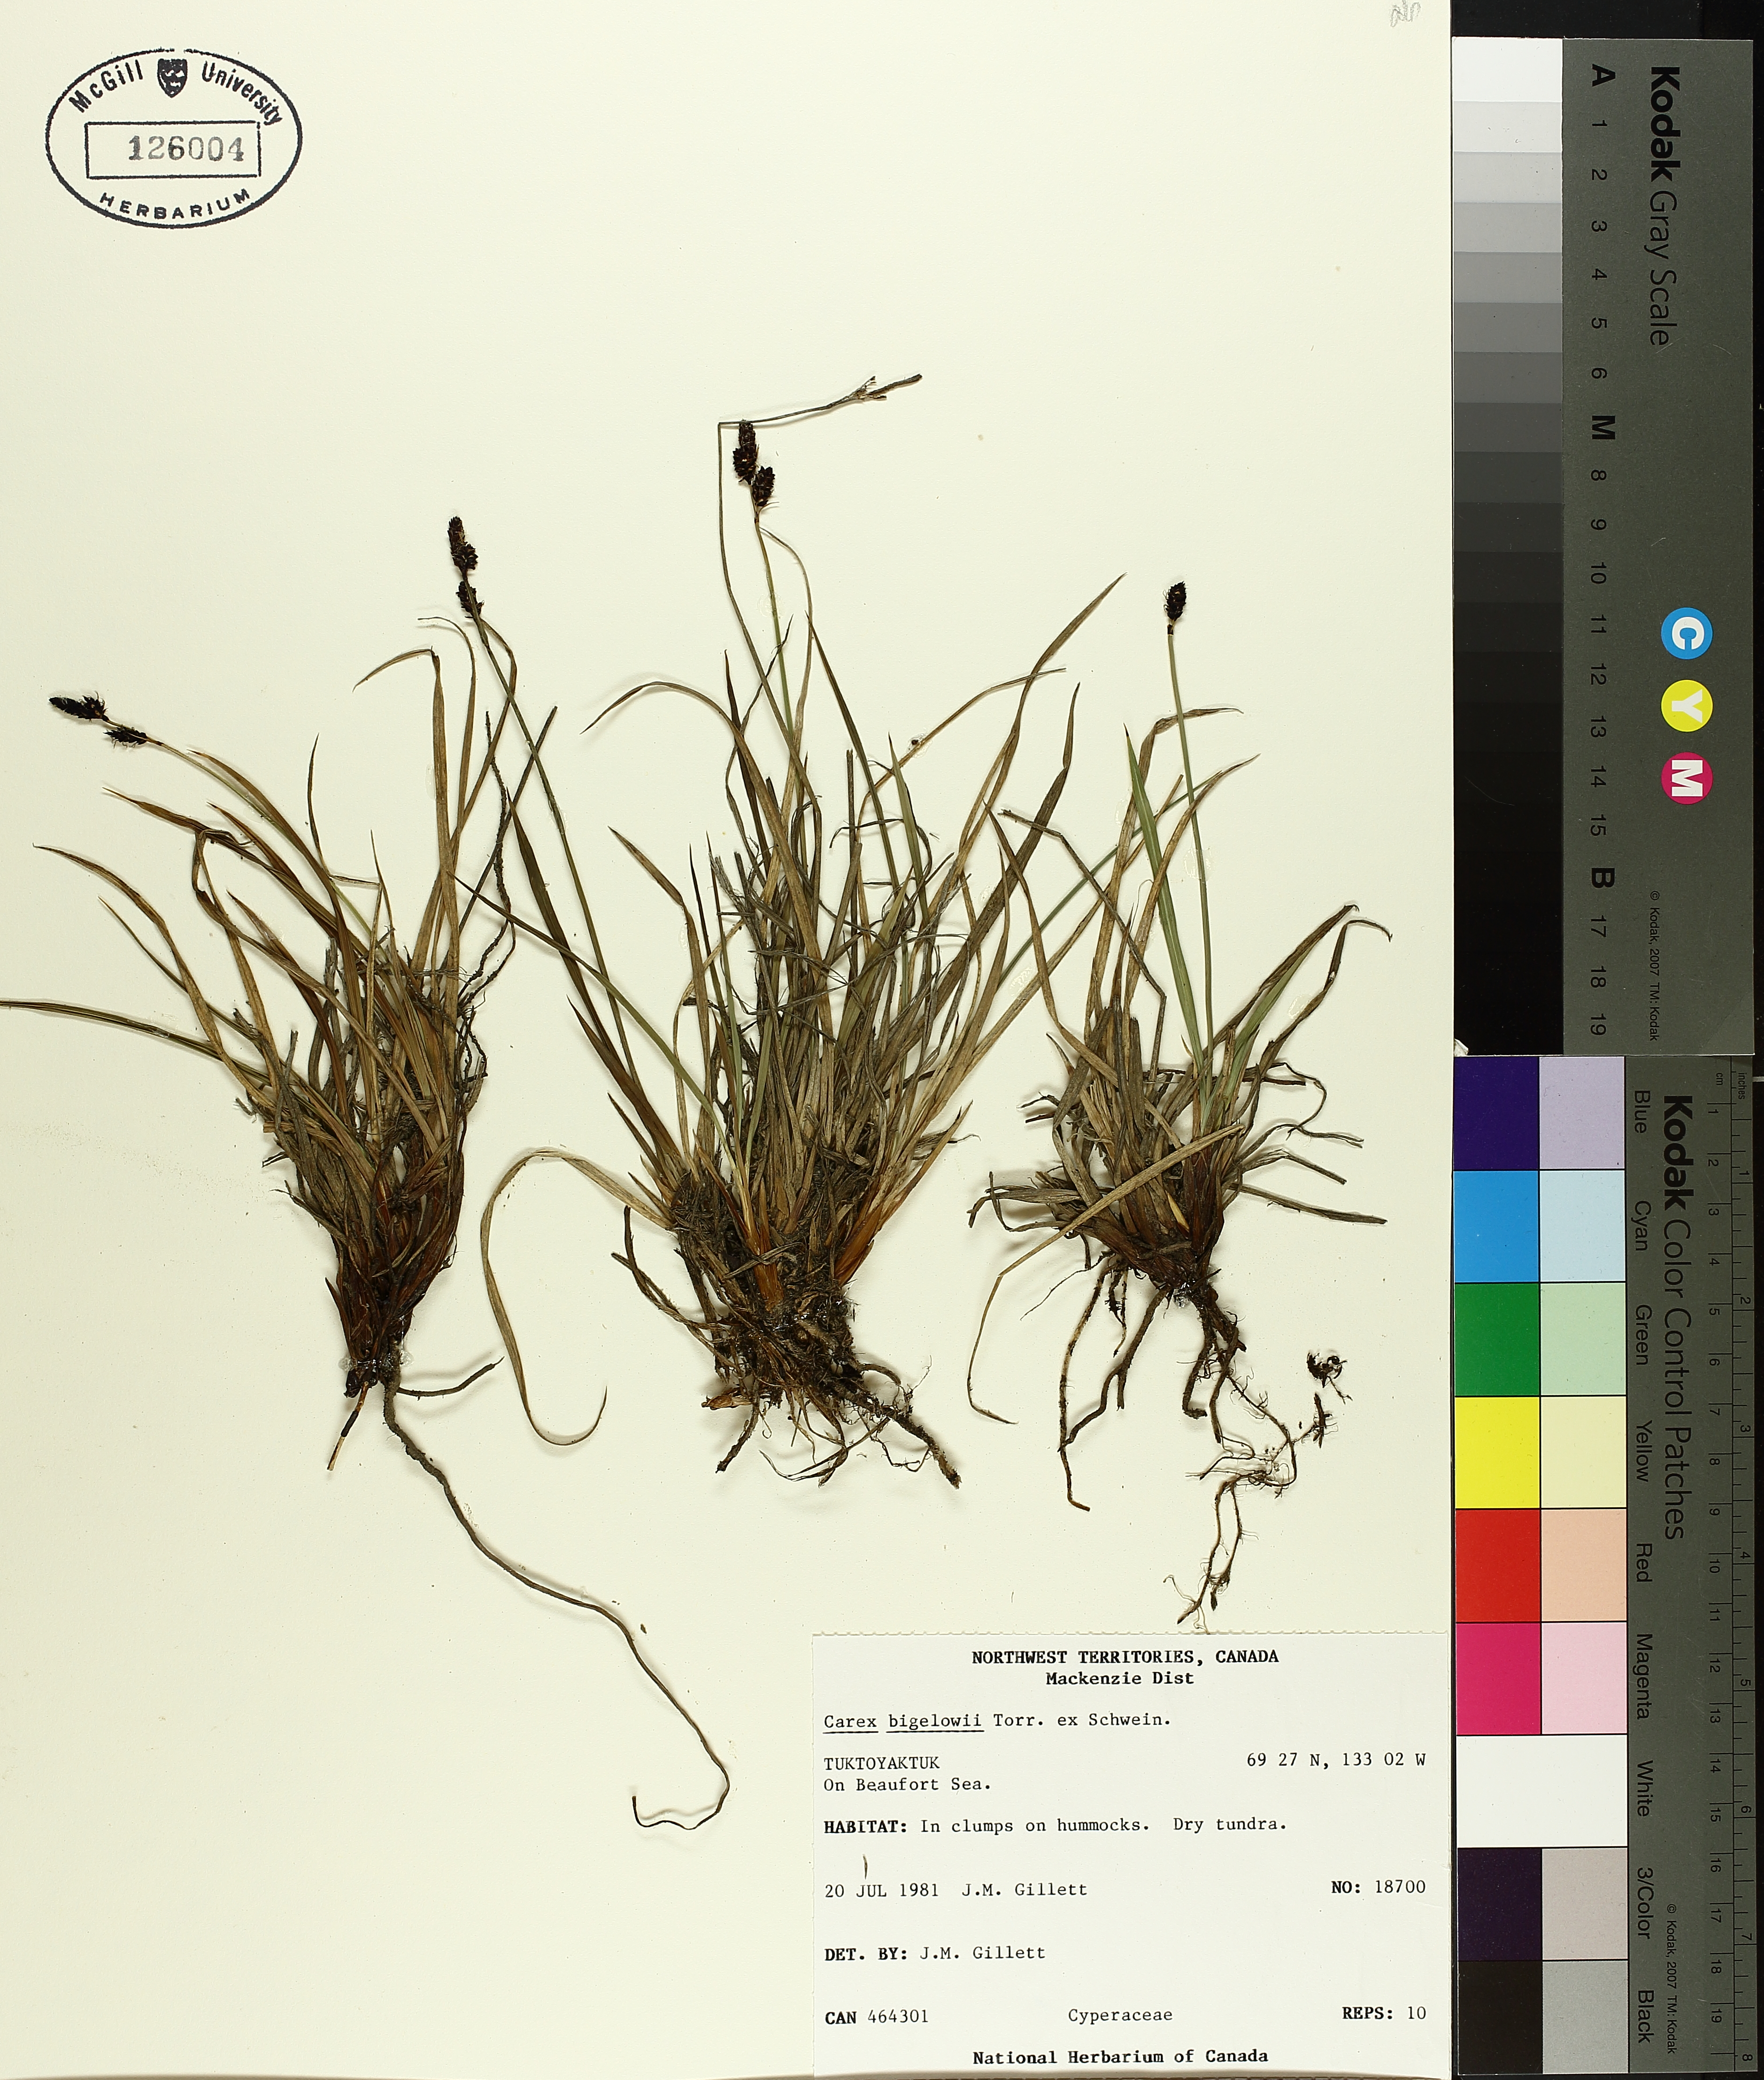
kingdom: Plantae
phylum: Tracheophyta
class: Liliopsida
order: Poales
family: Cyperaceae
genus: Carex
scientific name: Carex bigelowii
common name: Stiff sedge
